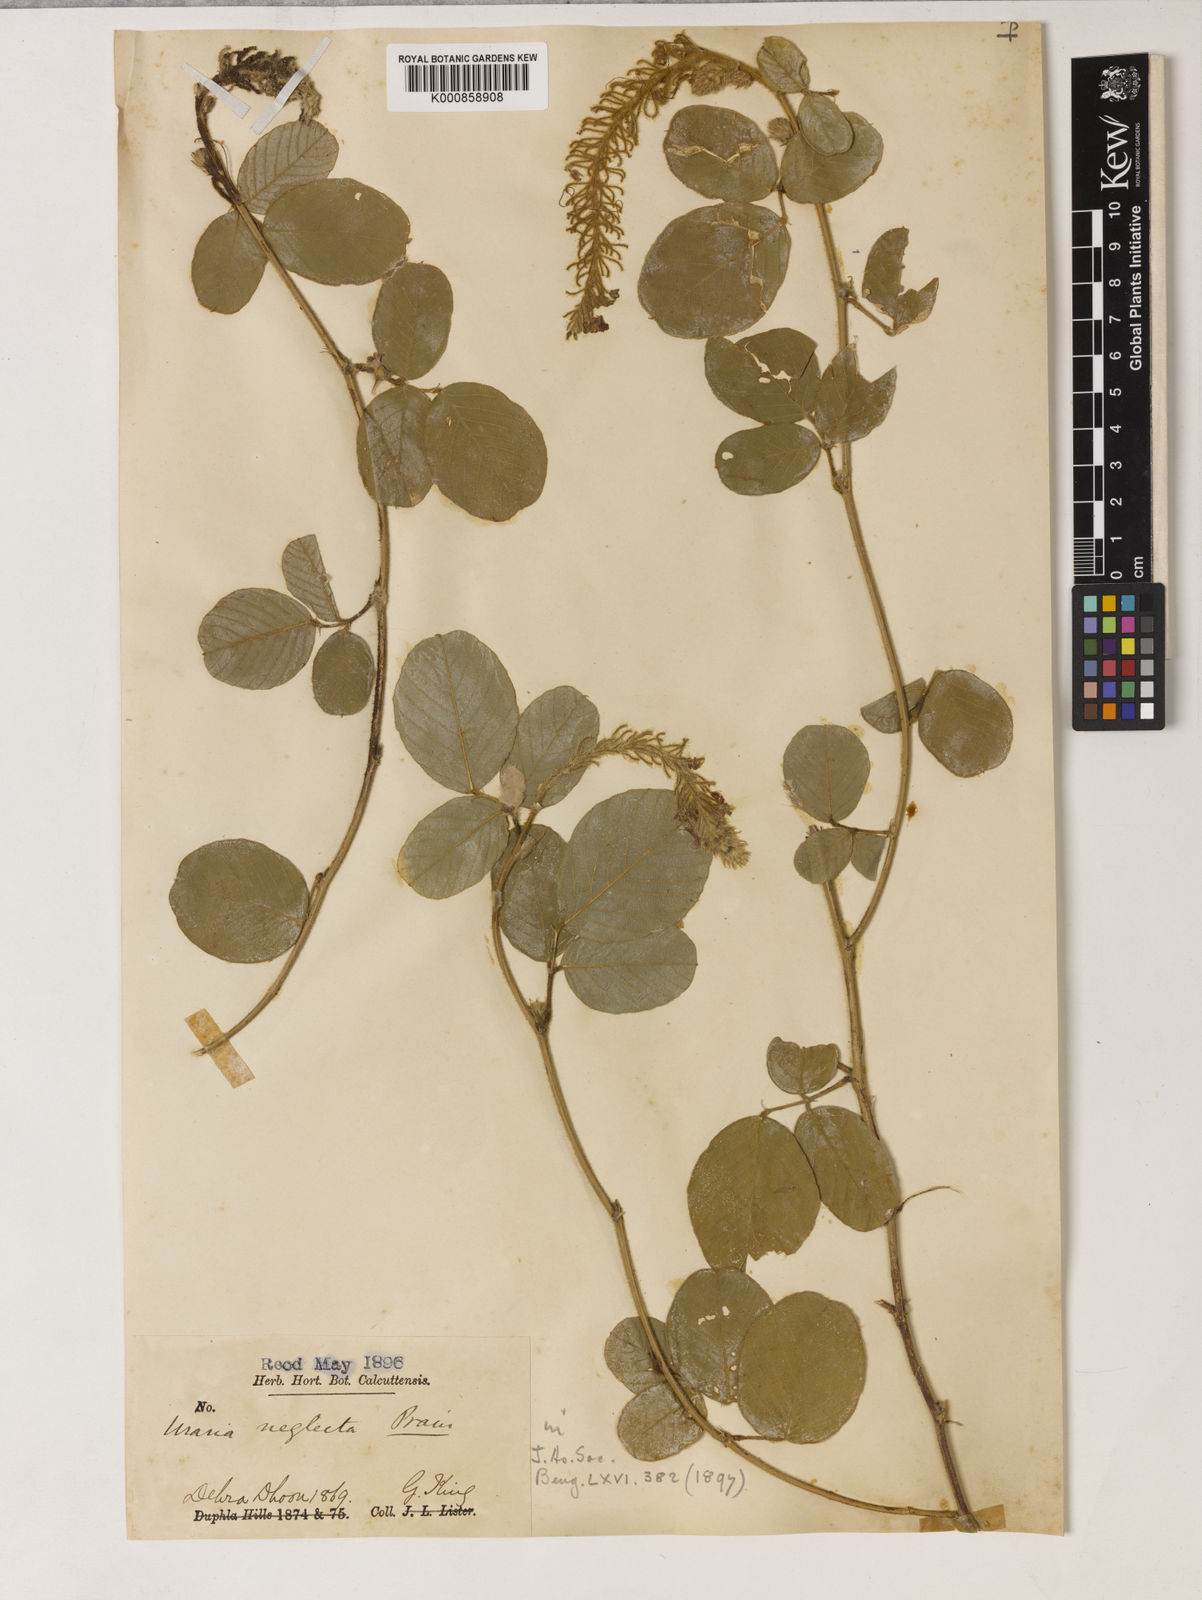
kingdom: Plantae
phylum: Tracheophyta
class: Magnoliopsida
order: Fabales
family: Fabaceae
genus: Uraria
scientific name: Uraria lagopus
